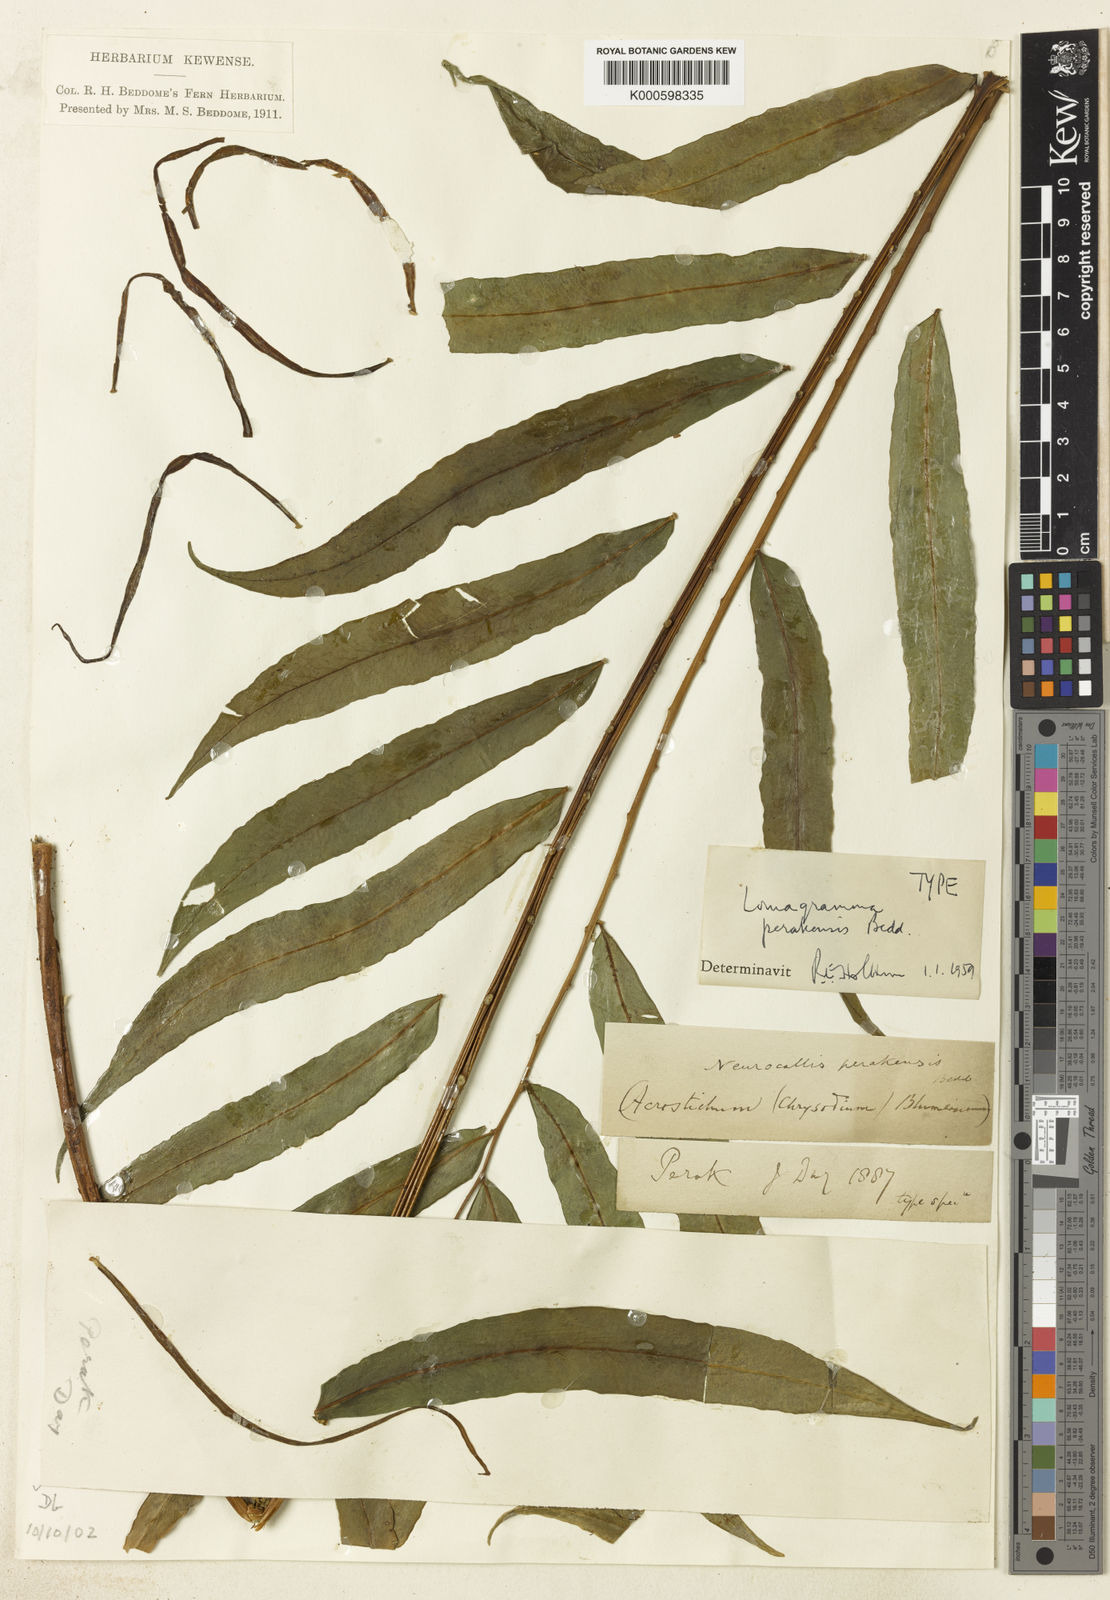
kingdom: Plantae
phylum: Tracheophyta
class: Polypodiopsida
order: Polypodiales
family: Dryopteridaceae
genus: Lomagramma
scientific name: Lomagramma perakensis
